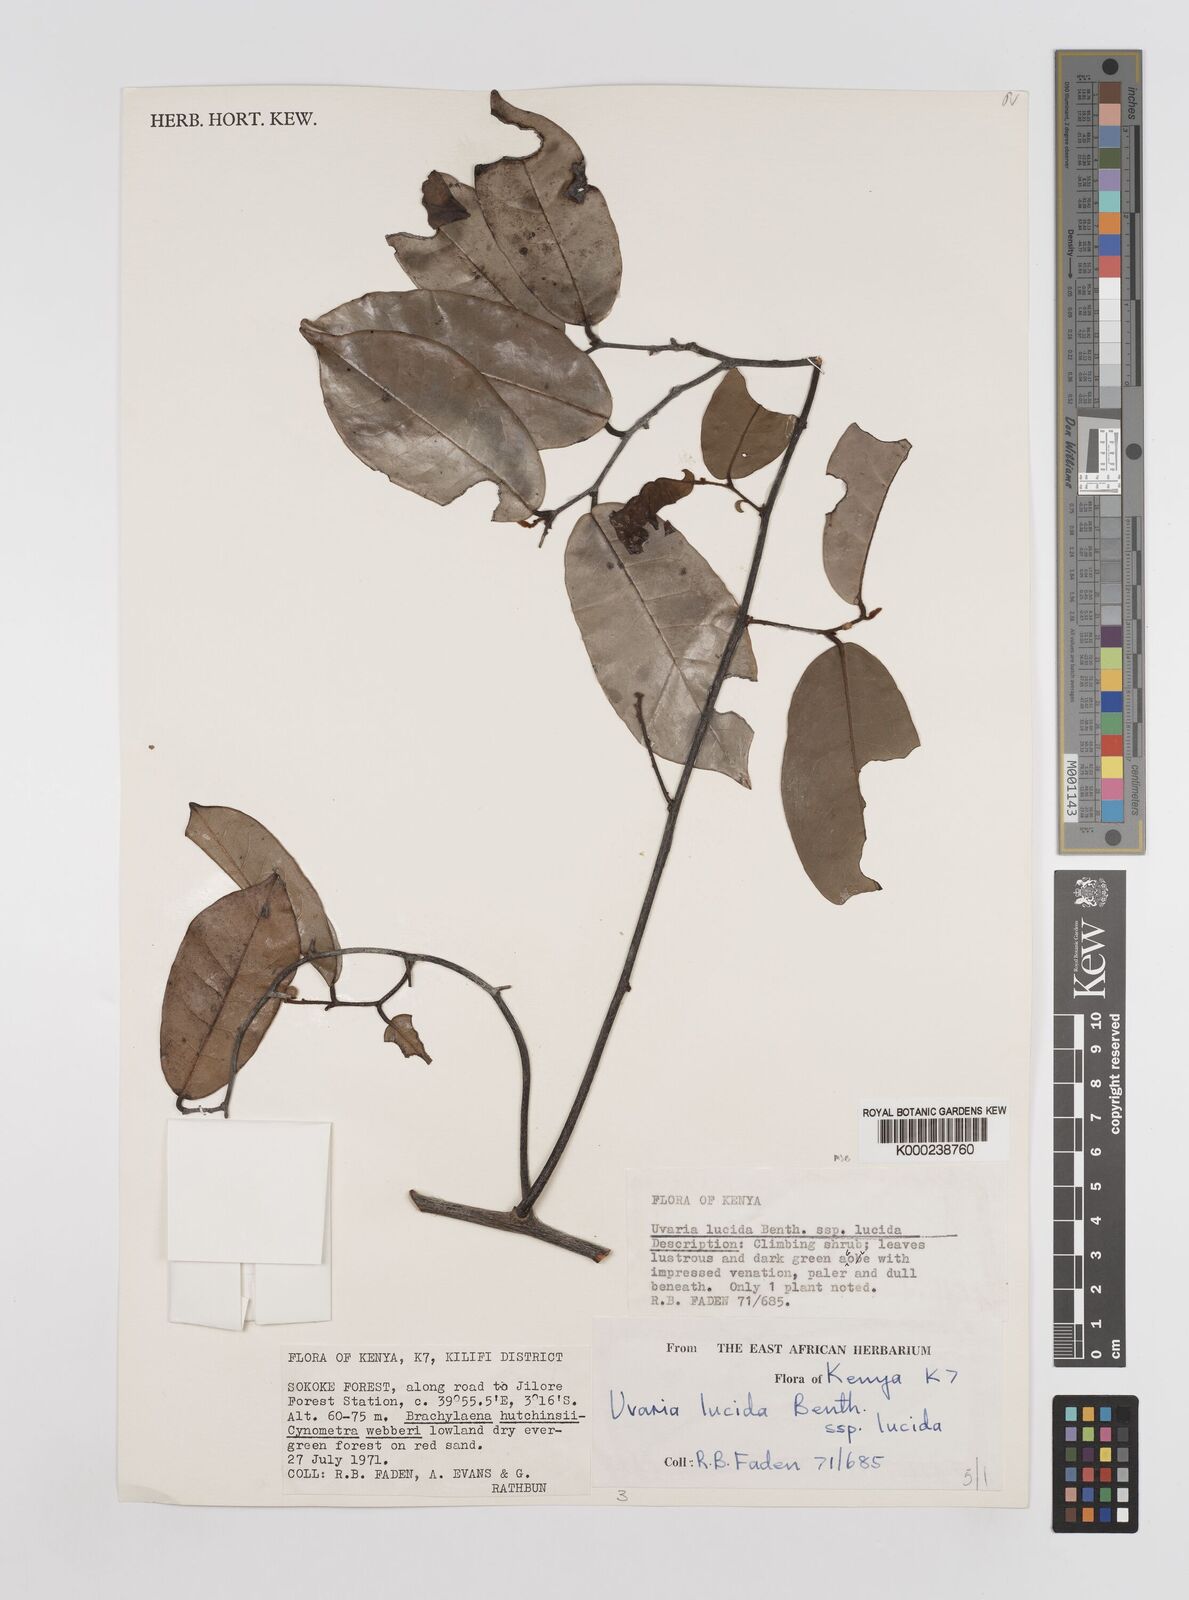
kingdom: Plantae
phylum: Tracheophyta
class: Magnoliopsida
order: Magnoliales
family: Annonaceae
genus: Uvaria
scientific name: Uvaria lucida
